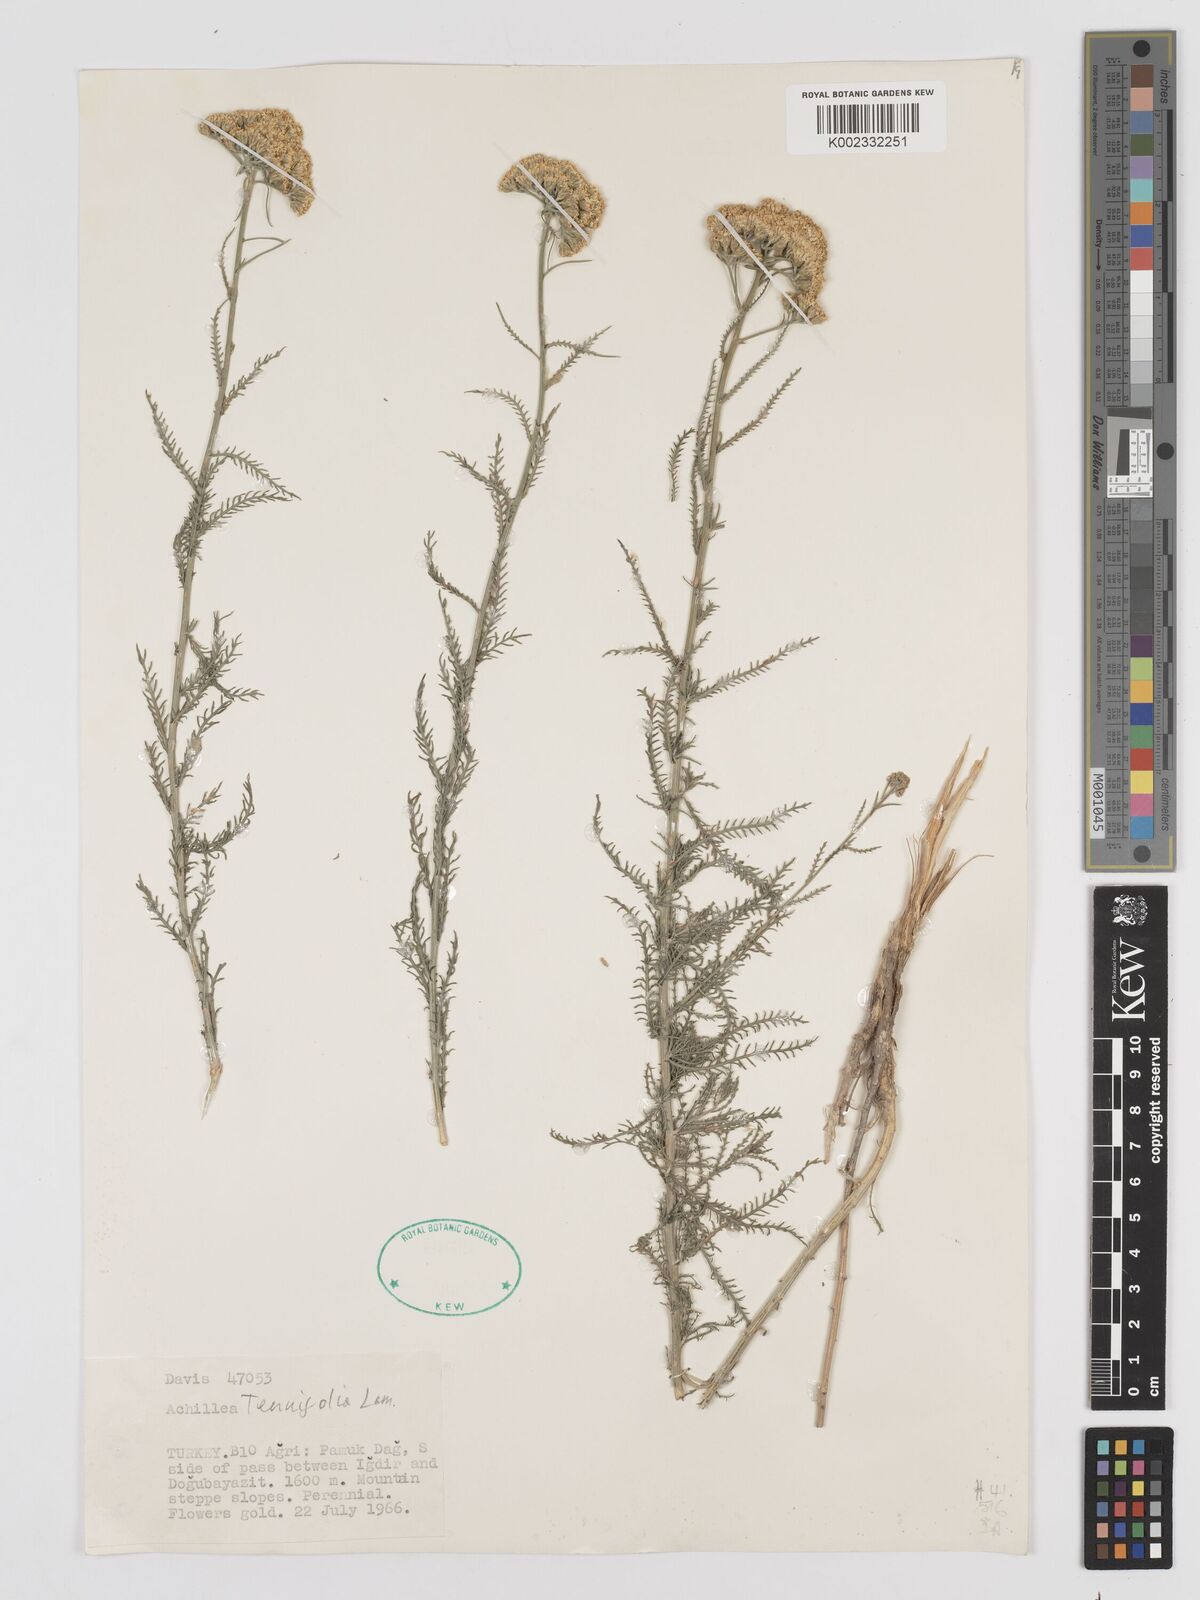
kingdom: Plantae
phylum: Tracheophyta
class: Magnoliopsida
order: Asterales
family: Asteraceae
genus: Achillea
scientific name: Achillea tenuifolia
